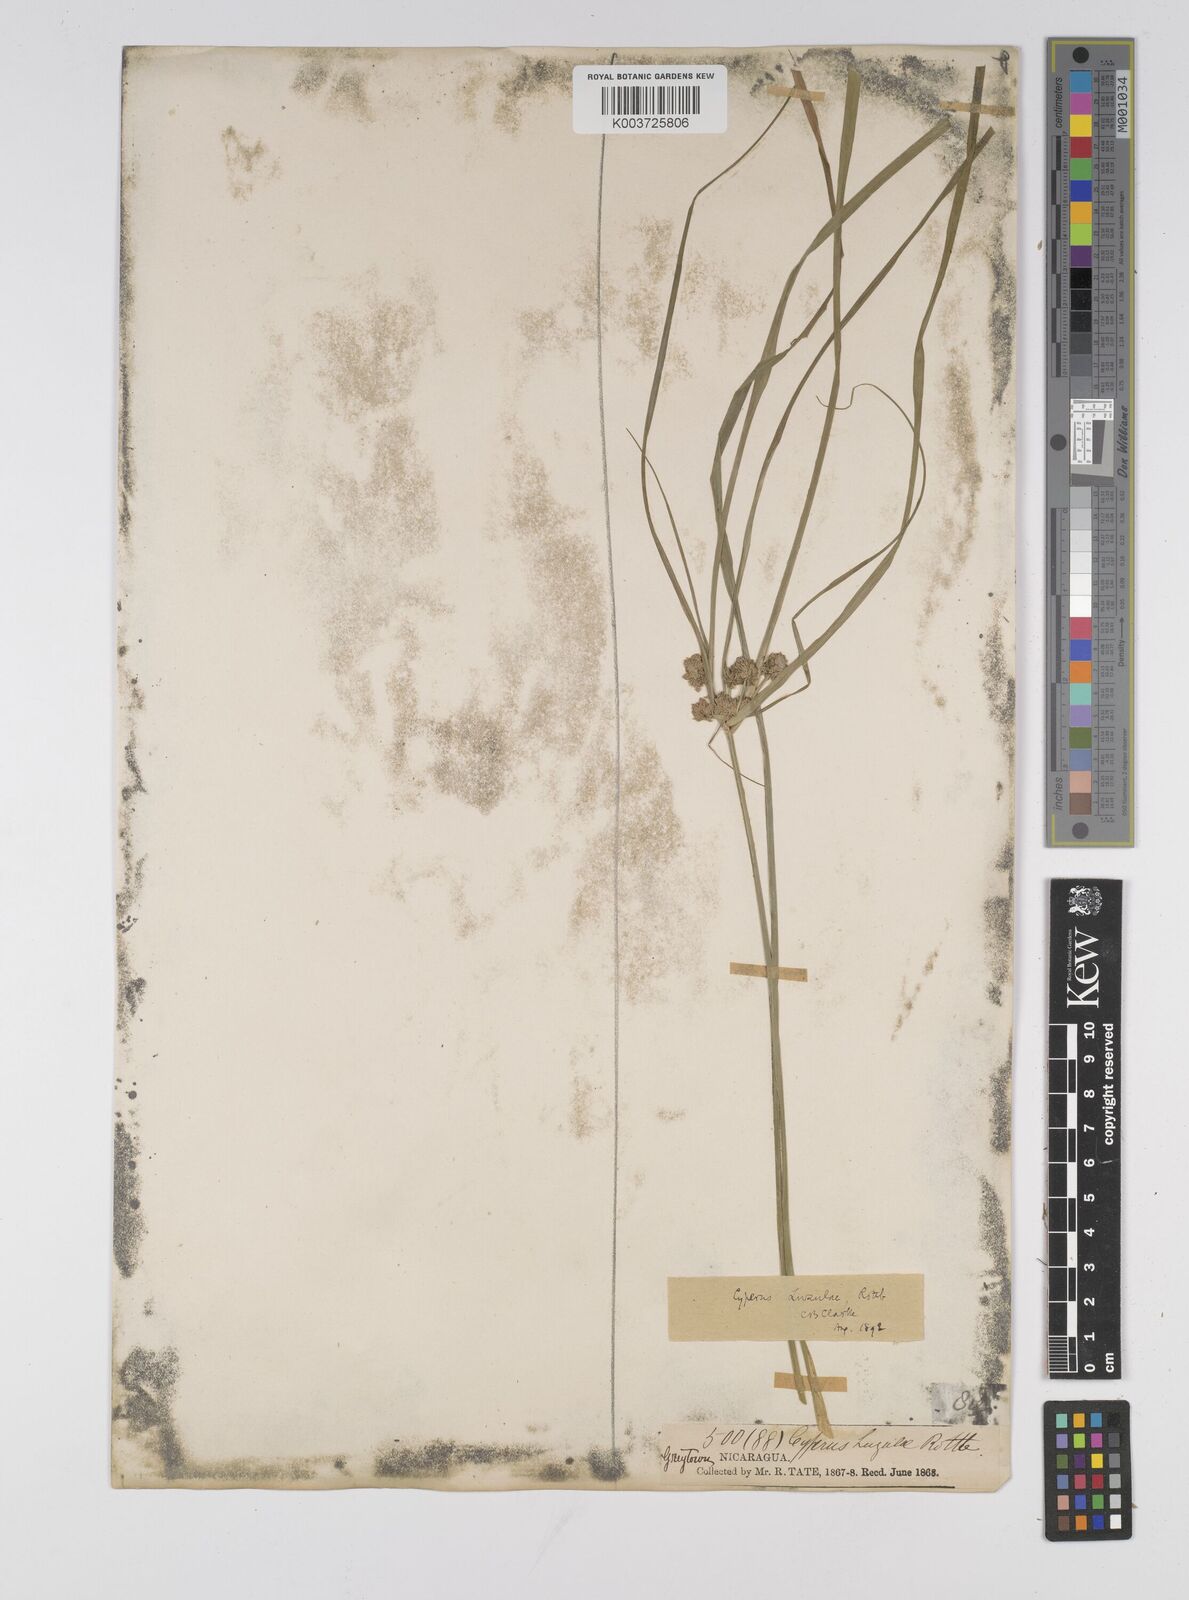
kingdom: Plantae
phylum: Tracheophyta
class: Liliopsida
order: Poales
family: Cyperaceae
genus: Cyperus
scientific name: Cyperus luzulae
